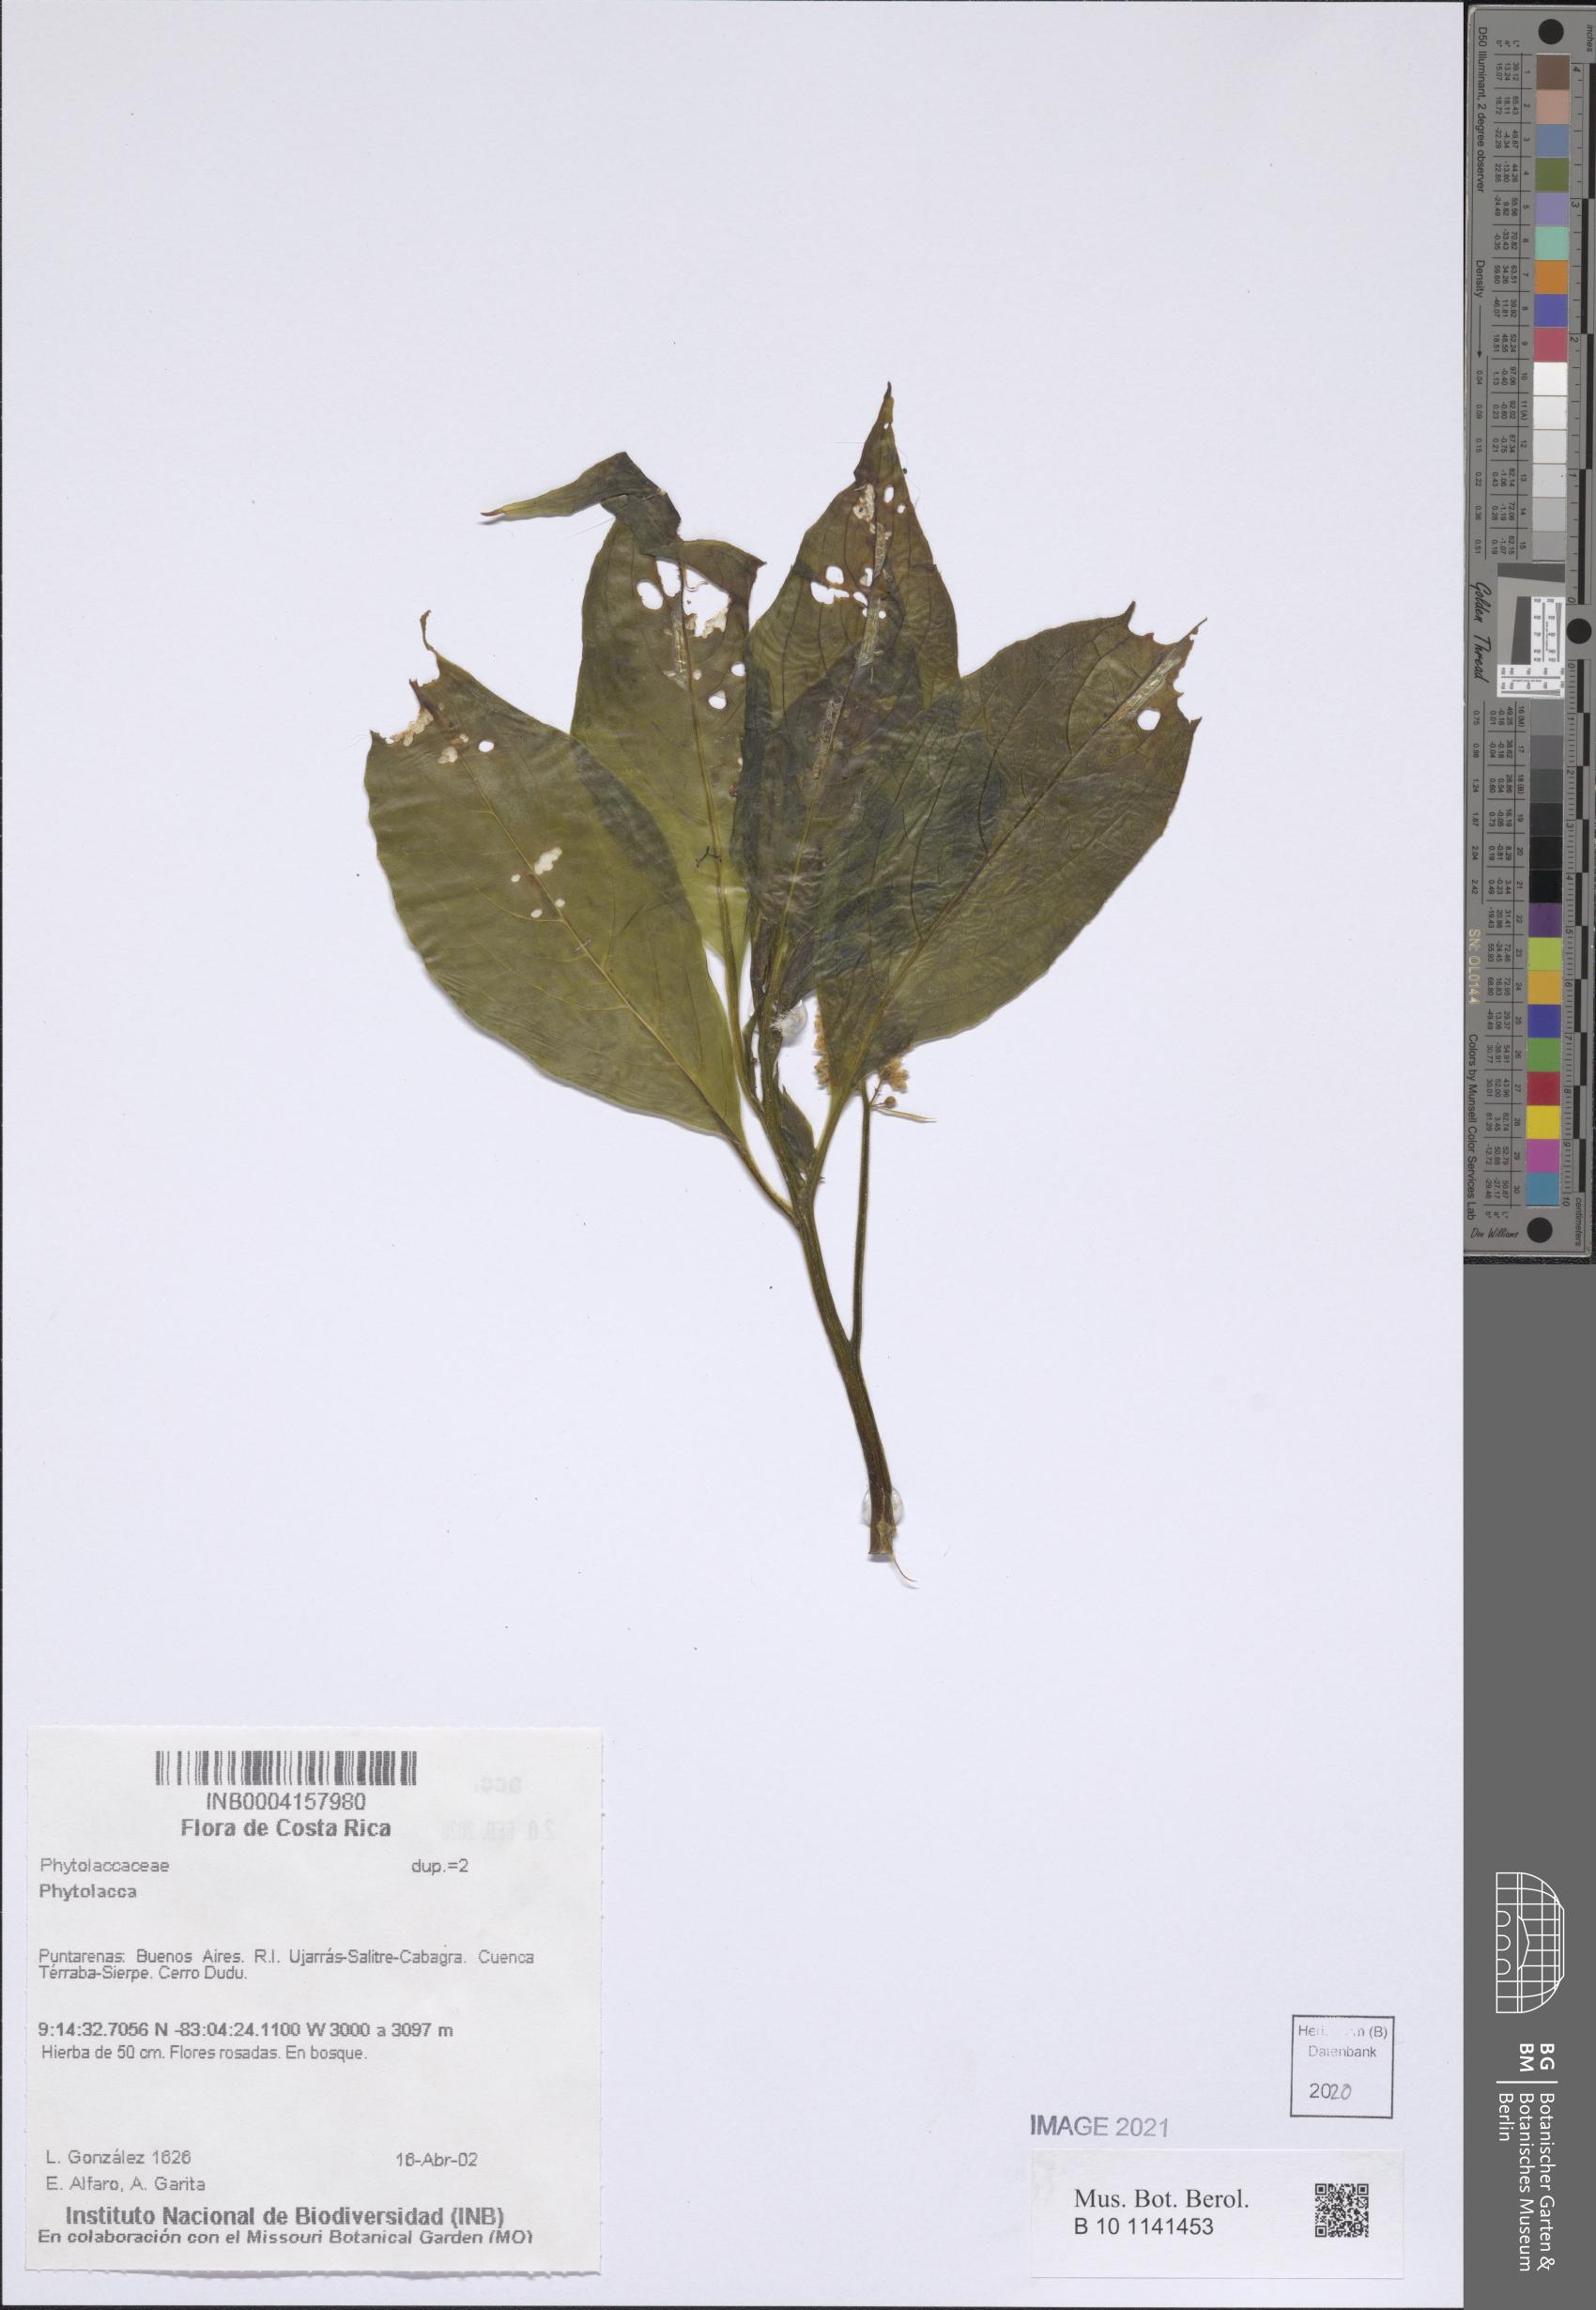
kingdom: Plantae
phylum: Tracheophyta
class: Magnoliopsida
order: Caryophyllales
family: Phytolaccaceae
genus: Phytolacca
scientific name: Phytolacca
